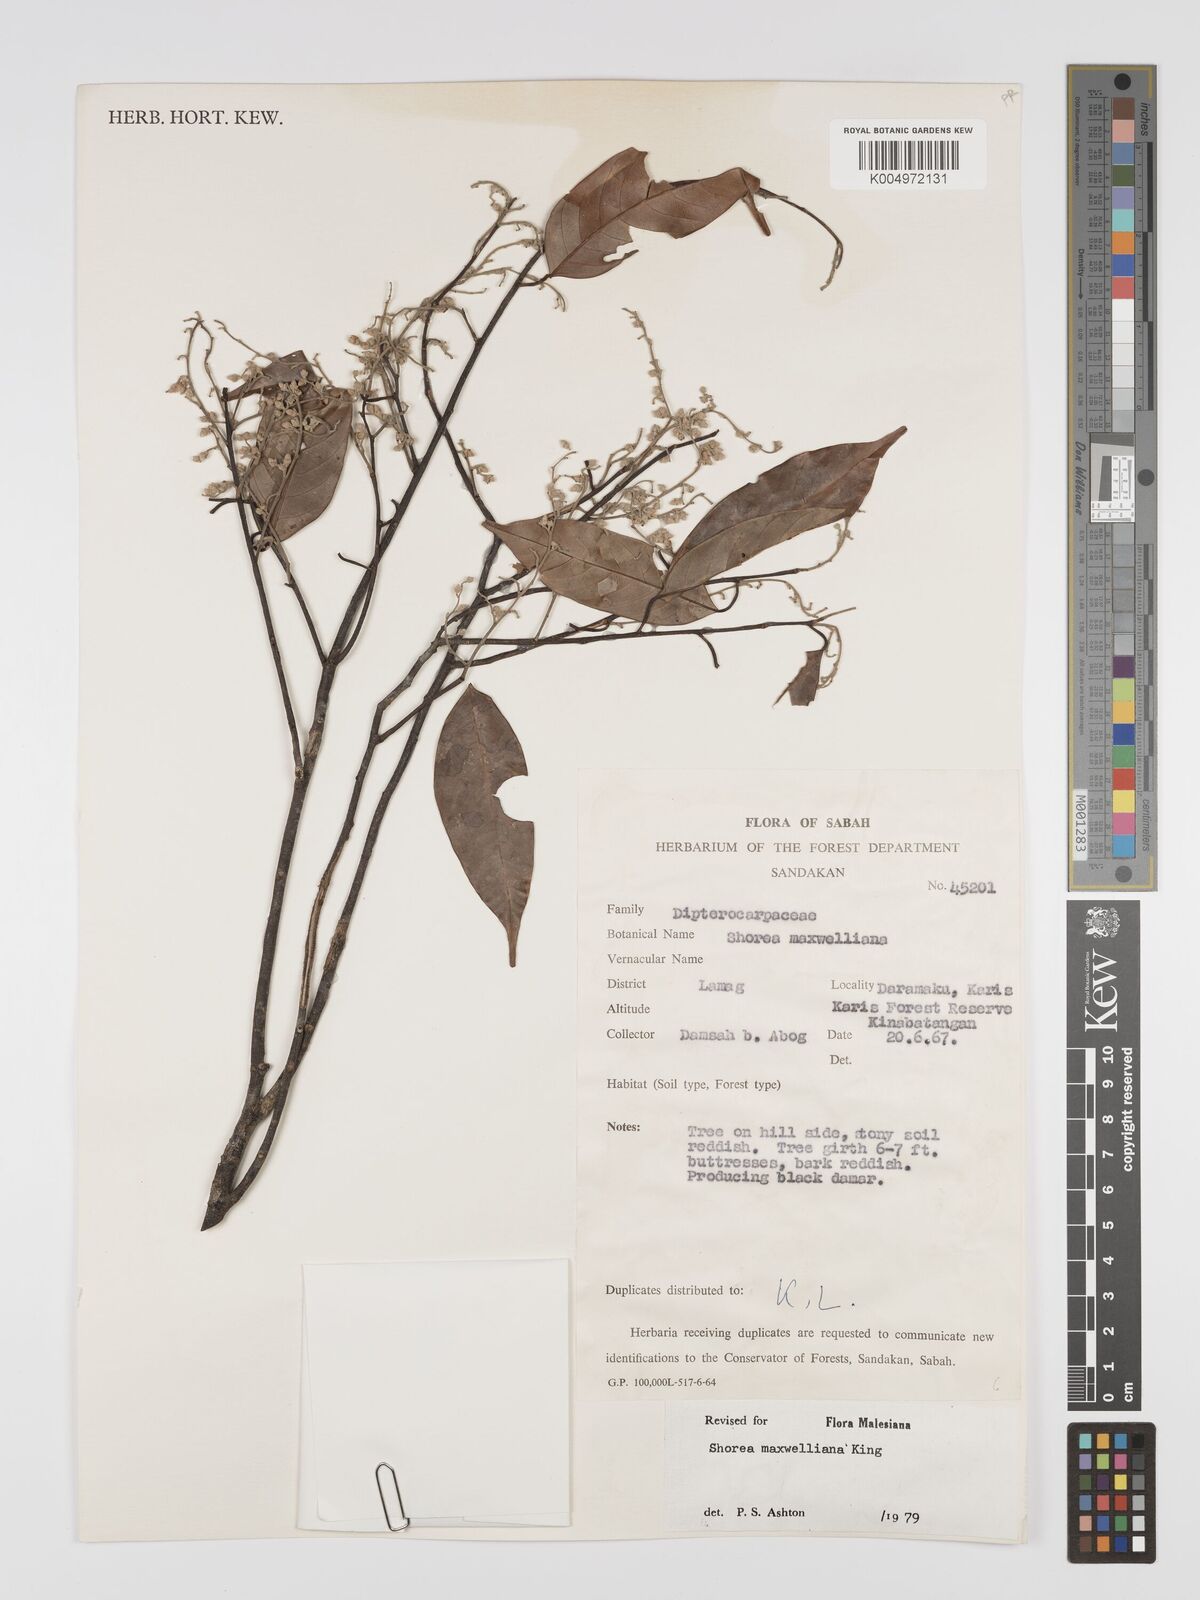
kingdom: Plantae
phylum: Tracheophyta
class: Magnoliopsida
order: Malvales
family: Dipterocarpaceae
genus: Shorea
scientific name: Shorea maxwelliana
